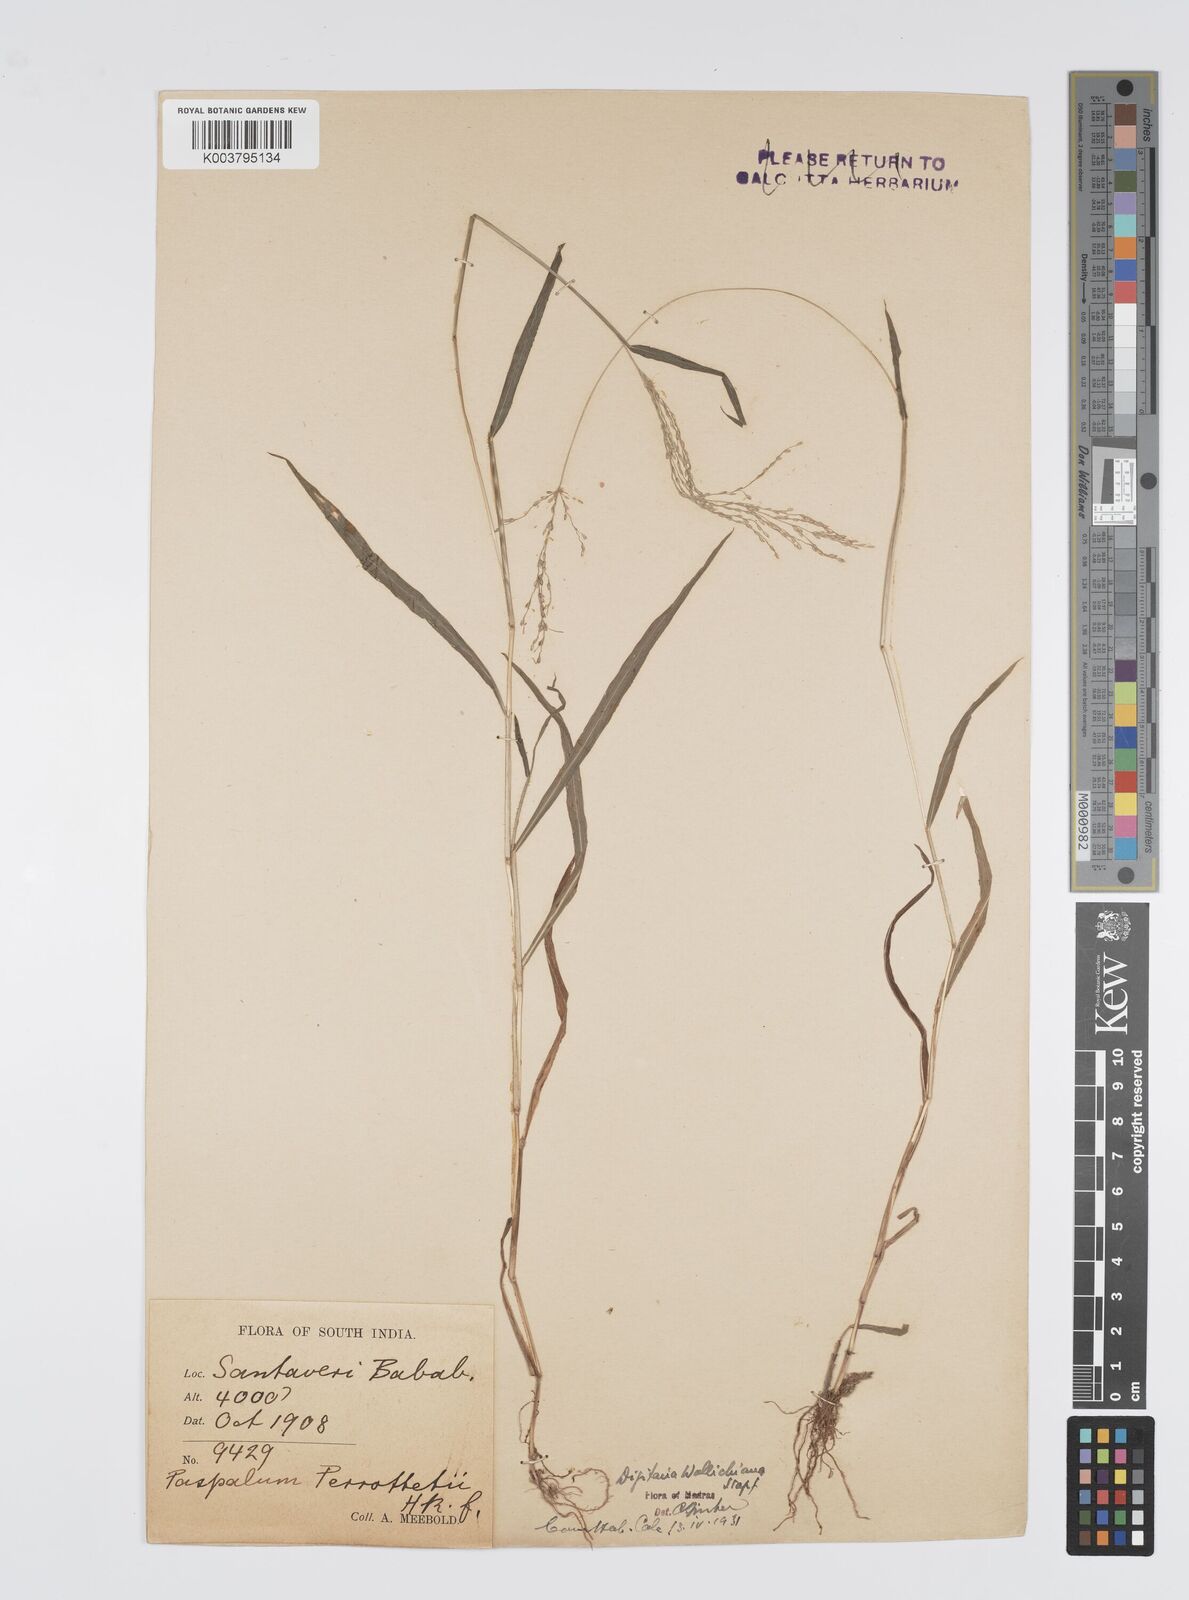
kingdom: Plantae
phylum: Tracheophyta
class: Liliopsida
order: Poales
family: Poaceae
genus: Digitaria
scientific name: Digitaria wallichiana
